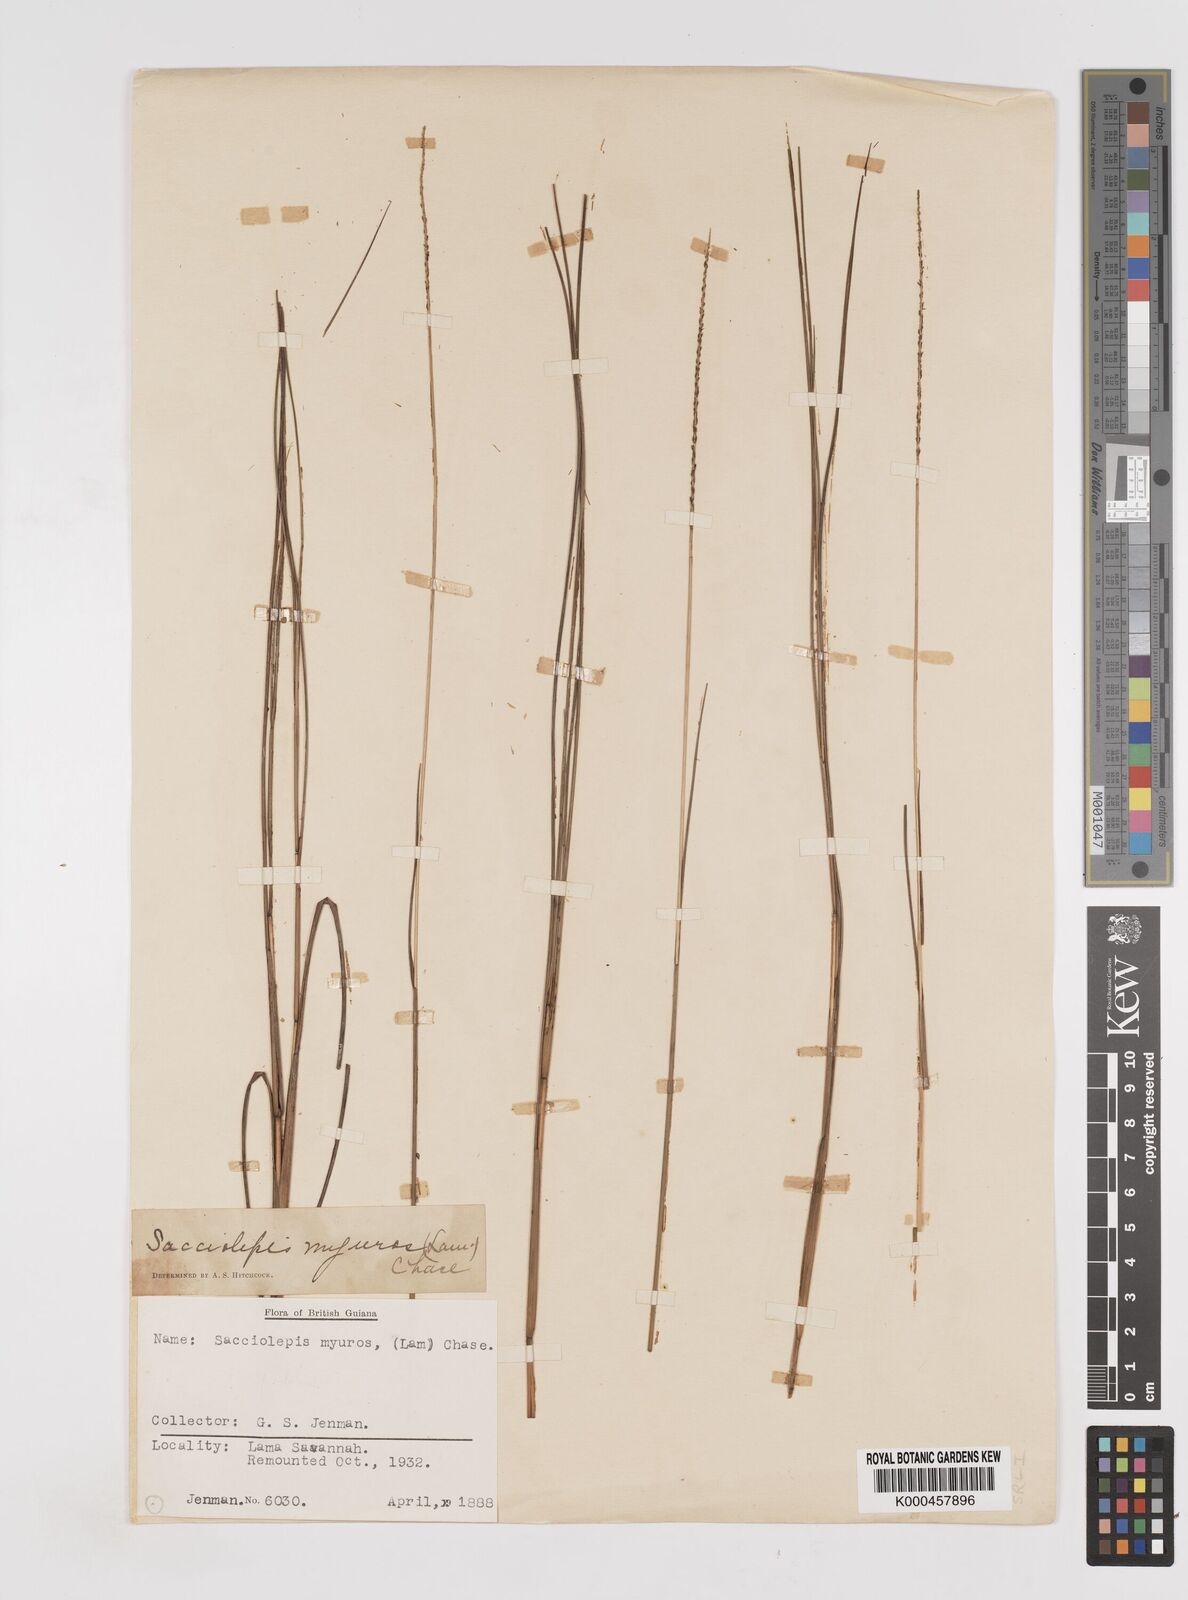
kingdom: Plantae
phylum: Tracheophyta
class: Liliopsida
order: Poales
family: Poaceae
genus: Sacciolepis
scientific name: Sacciolepis angustissima
